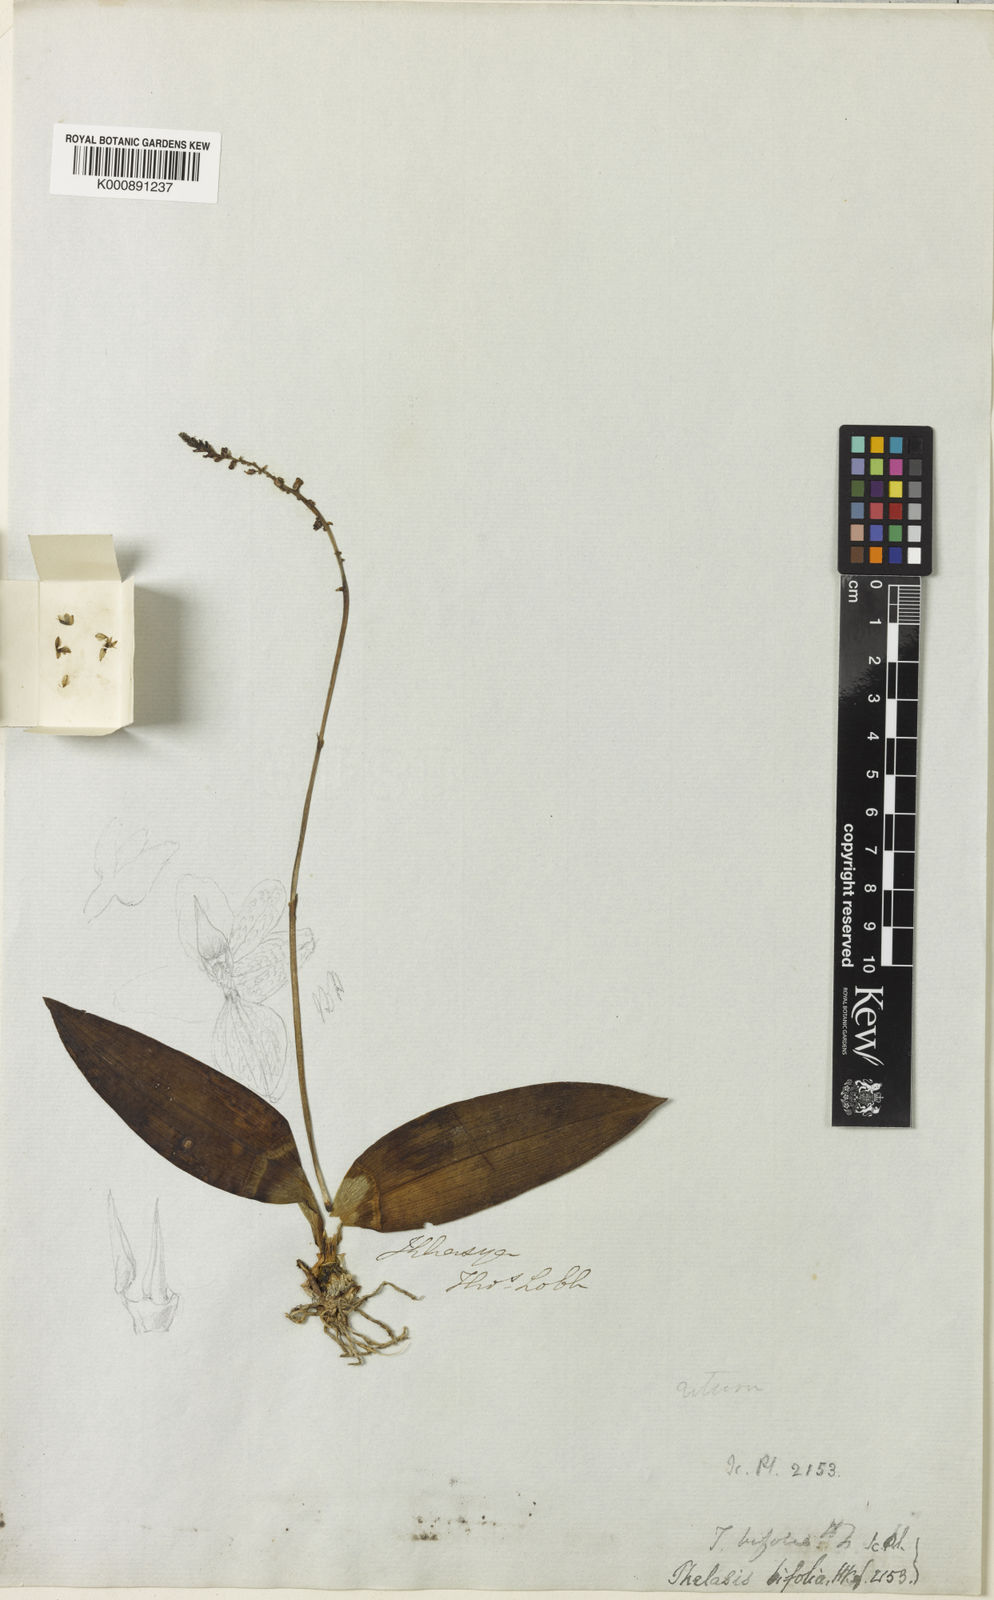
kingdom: Plantae
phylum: Tracheophyta
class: Liliopsida
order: Asparagales
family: Orchidaceae
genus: Thelasis
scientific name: Thelasis bifolia
